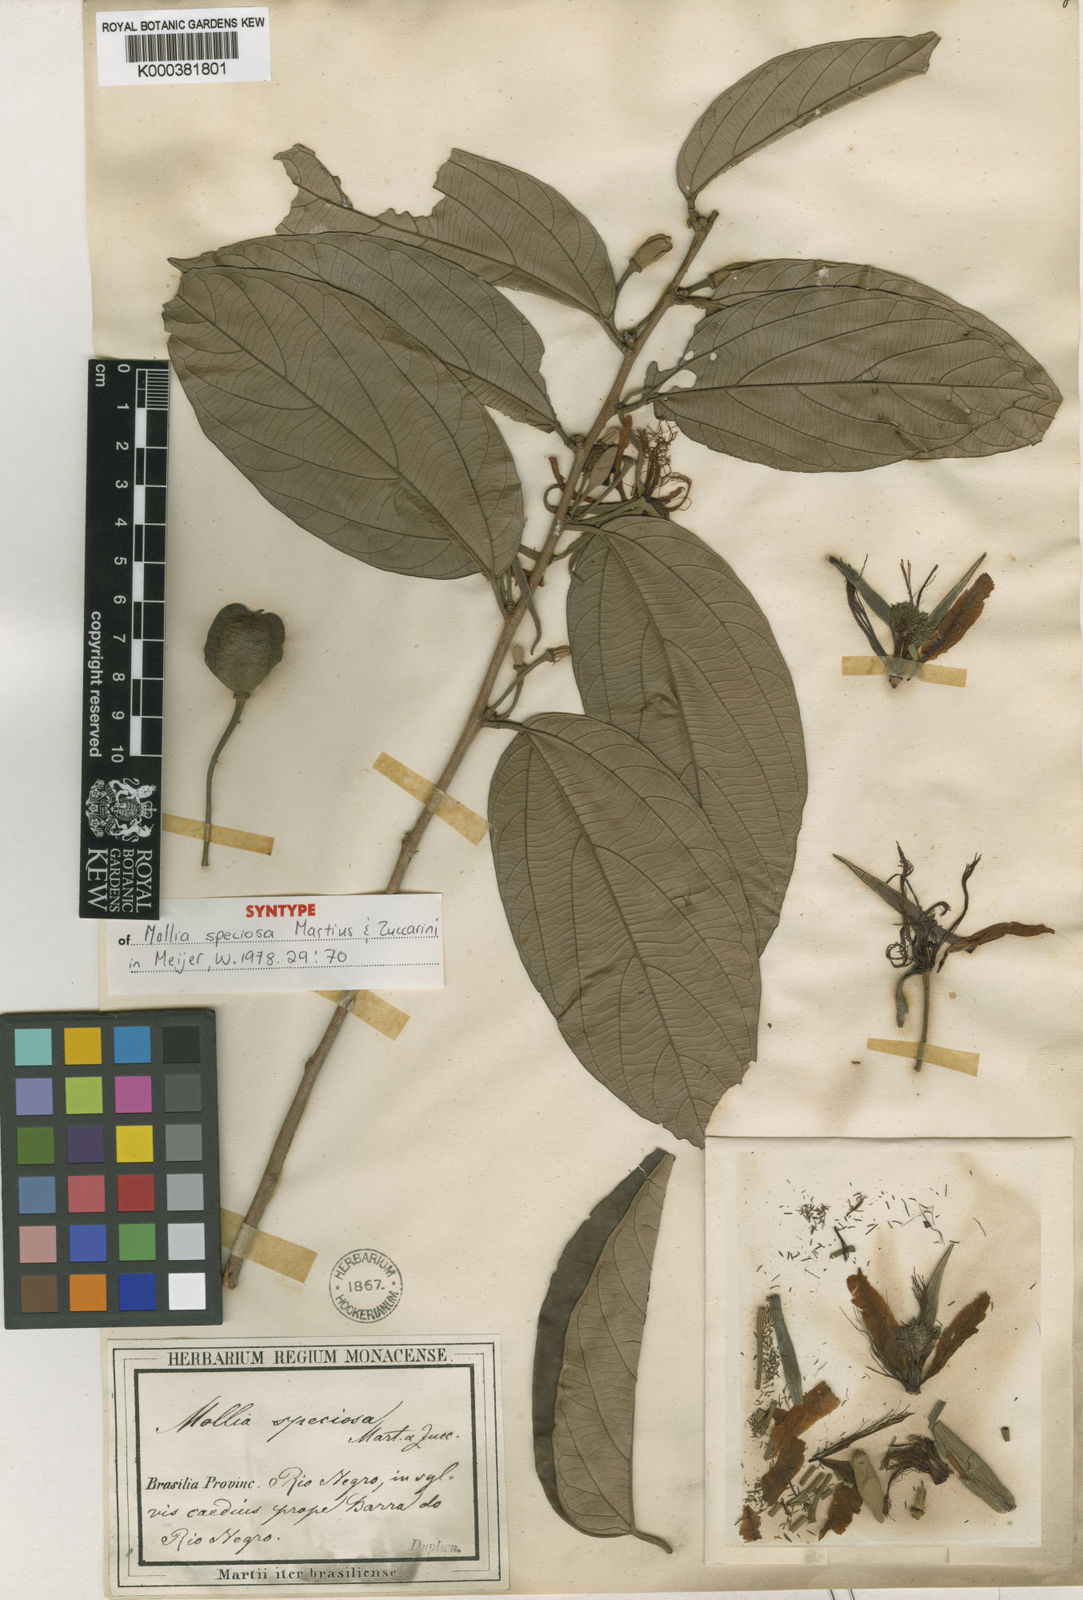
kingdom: Plantae
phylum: Tracheophyta
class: Magnoliopsida
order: Malvales
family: Malvaceae
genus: Mollia
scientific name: Mollia speciosa
